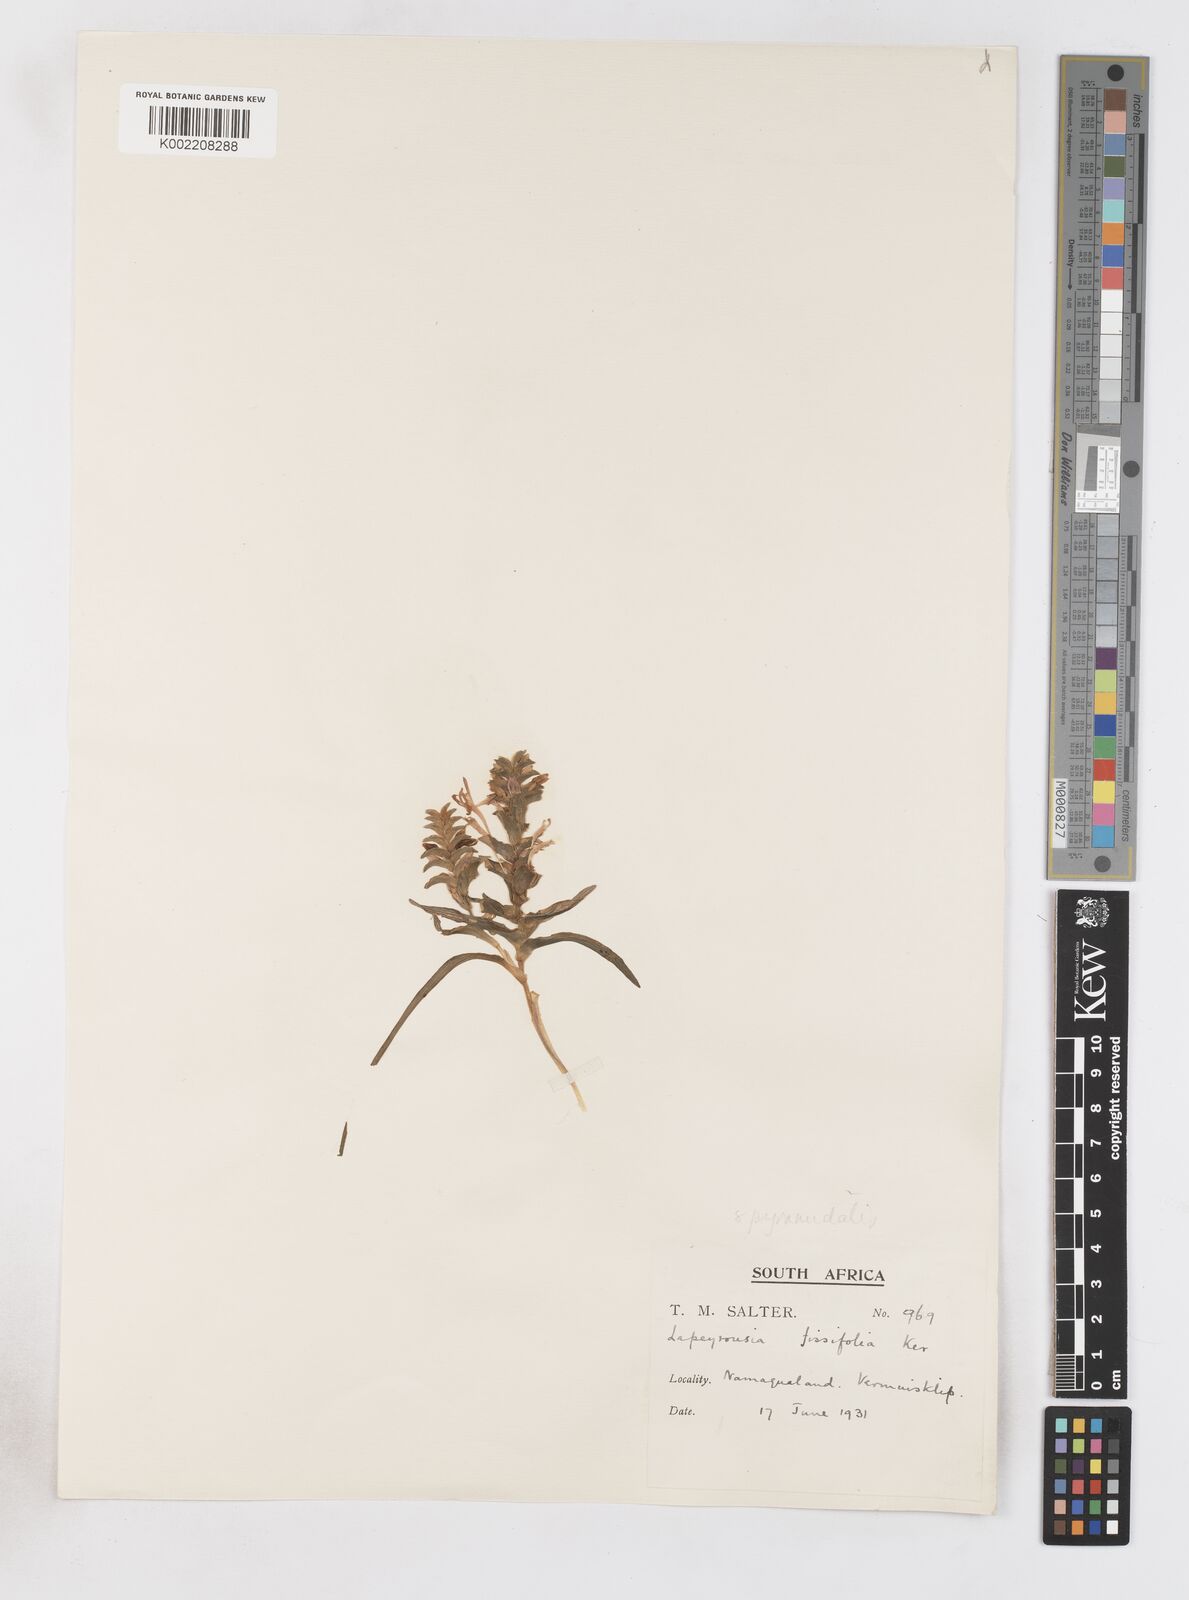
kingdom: Plantae
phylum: Tracheophyta
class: Liliopsida
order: Asparagales
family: Iridaceae
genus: Lapeirousia
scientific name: Lapeirousia pyramidalis
